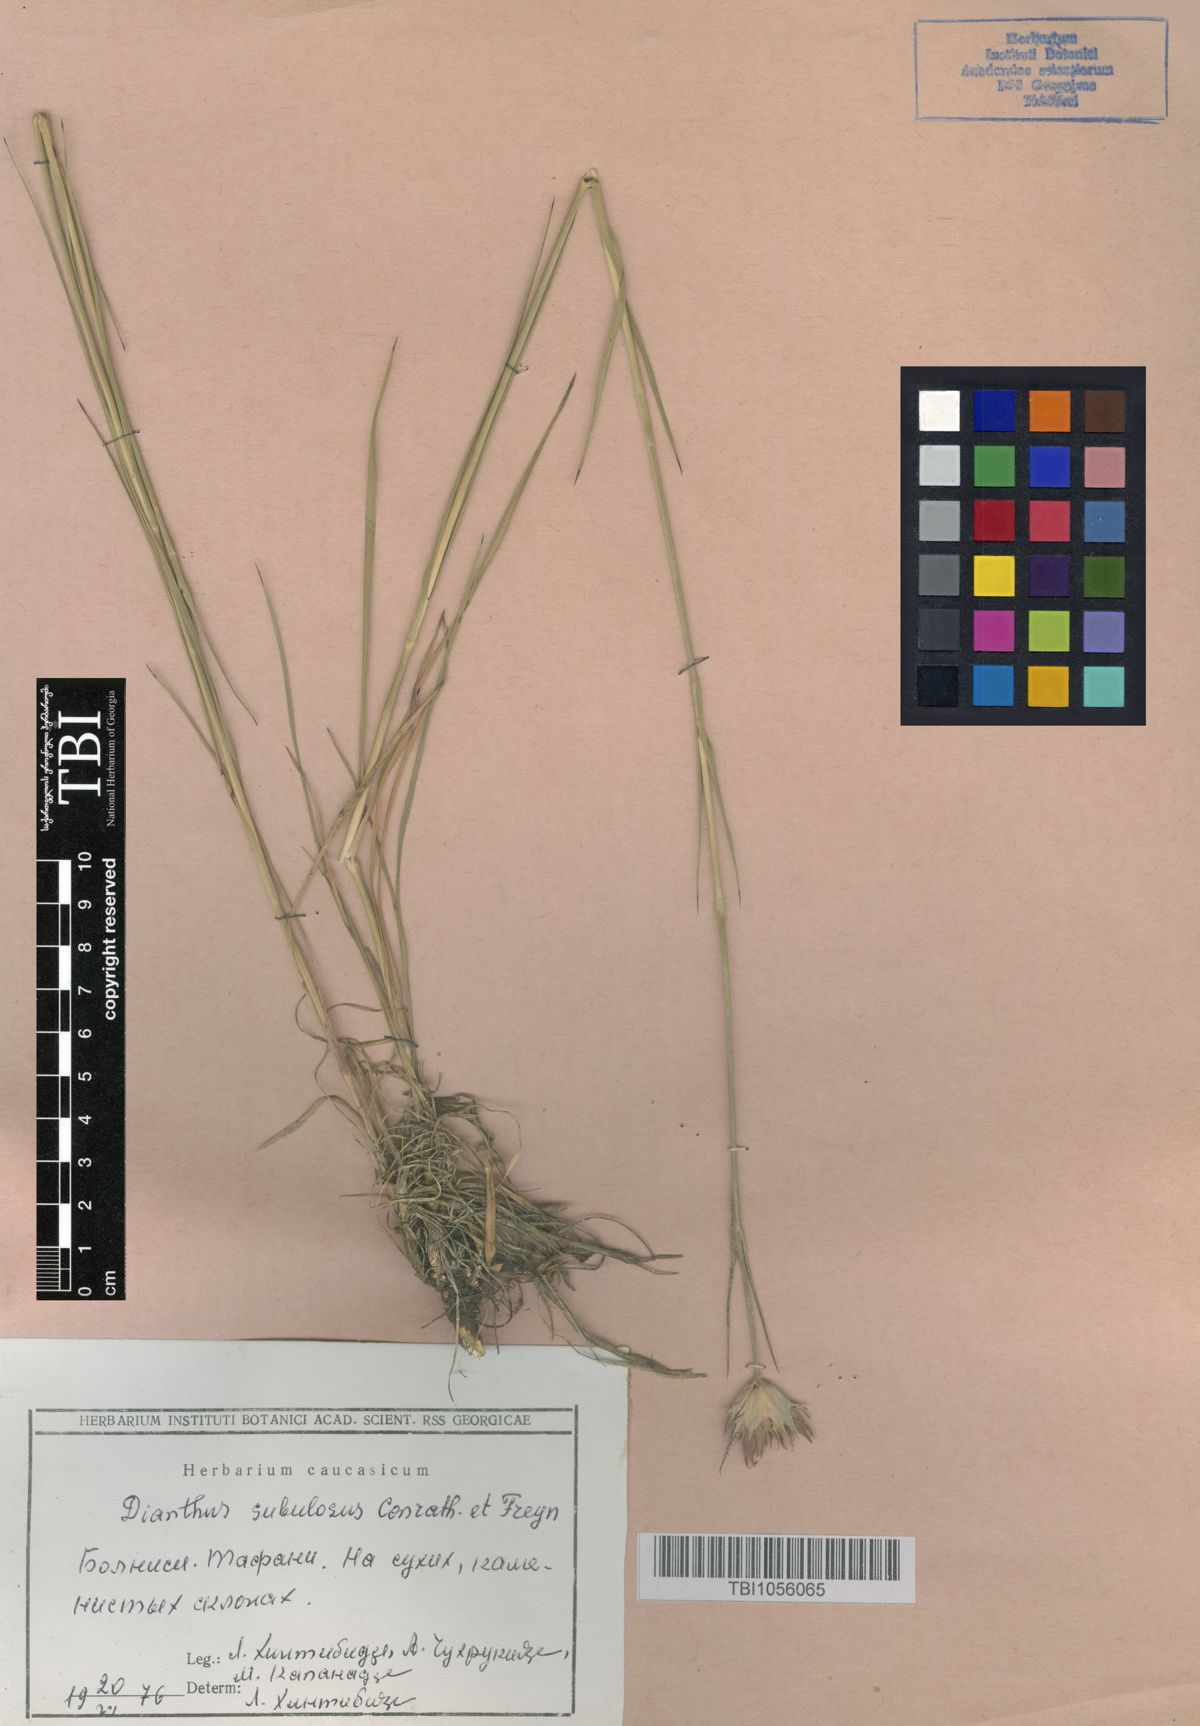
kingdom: Plantae
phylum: Tracheophyta
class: Magnoliopsida
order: Caryophyllales
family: Caryophyllaceae
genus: Dianthus
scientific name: Dianthus subulosus
